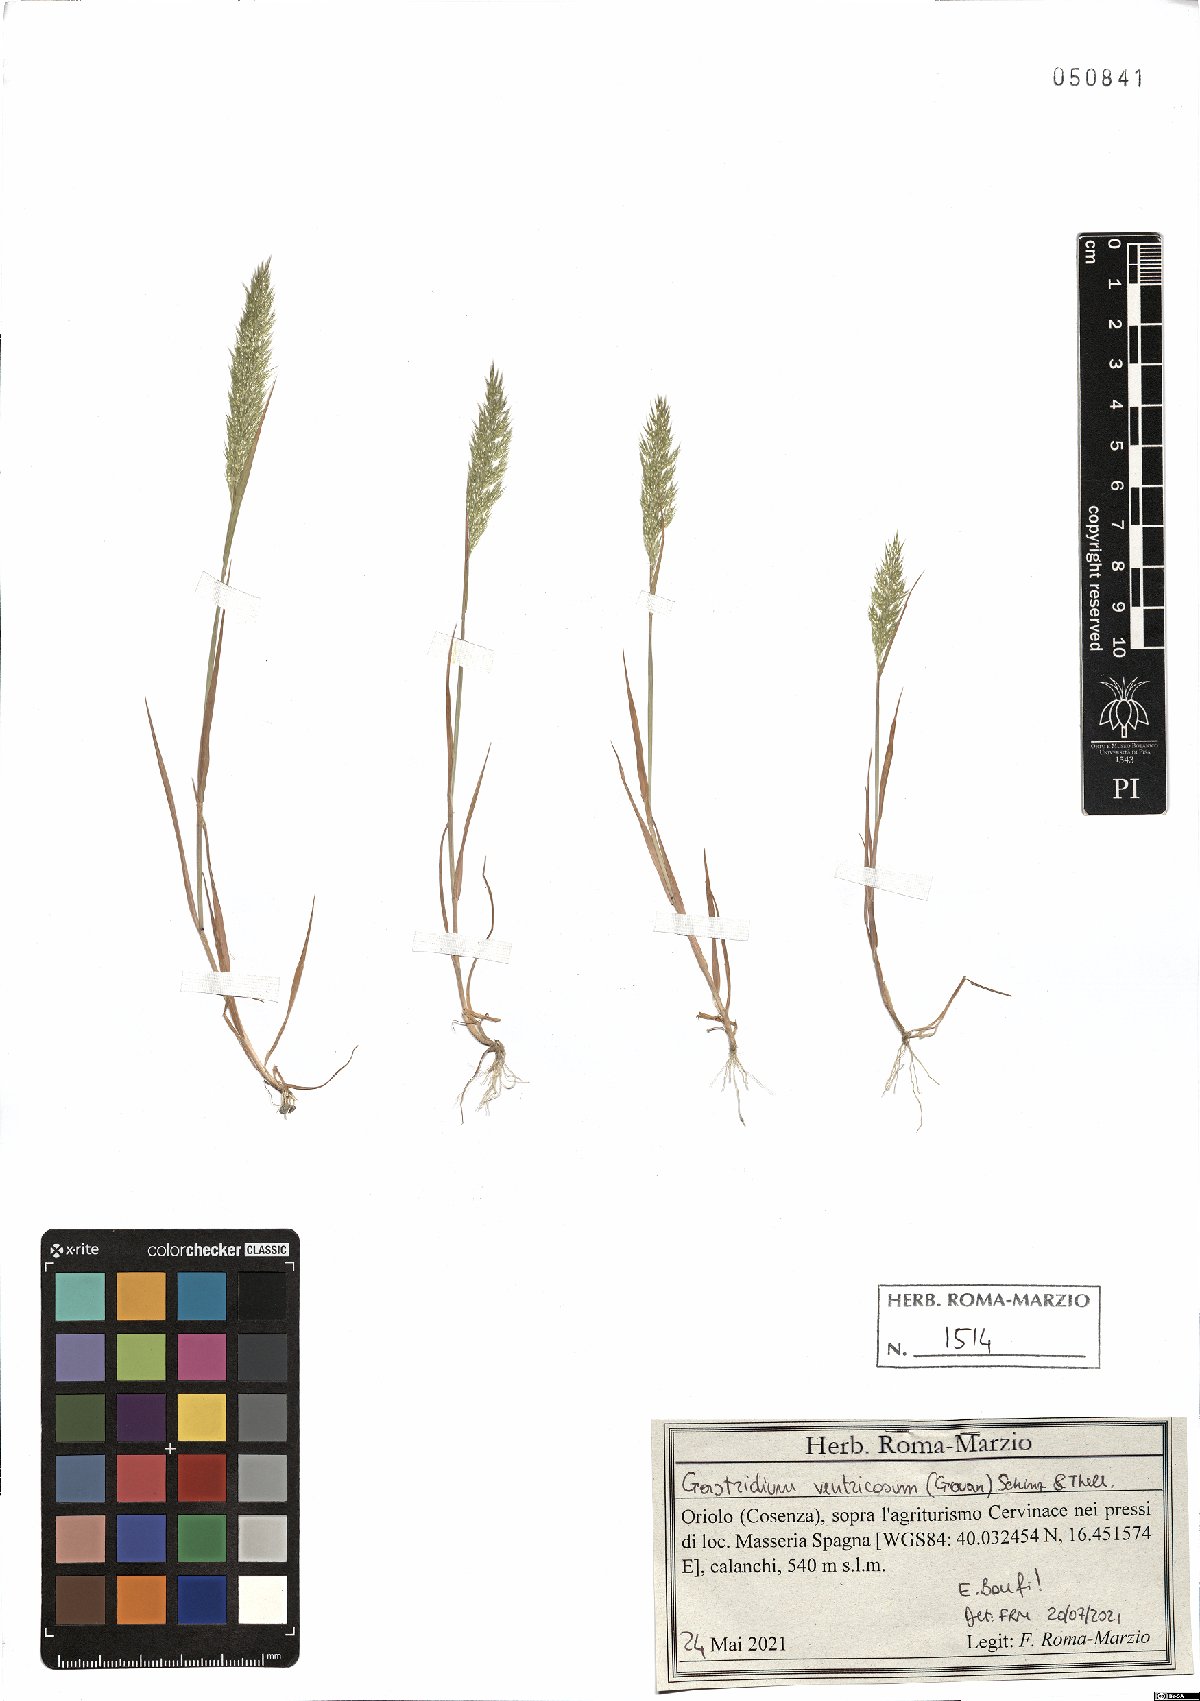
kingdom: Plantae
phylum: Tracheophyta
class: Liliopsida
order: Poales
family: Poaceae
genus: Gastridium
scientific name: Gastridium ventricosum
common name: Nit-grass
